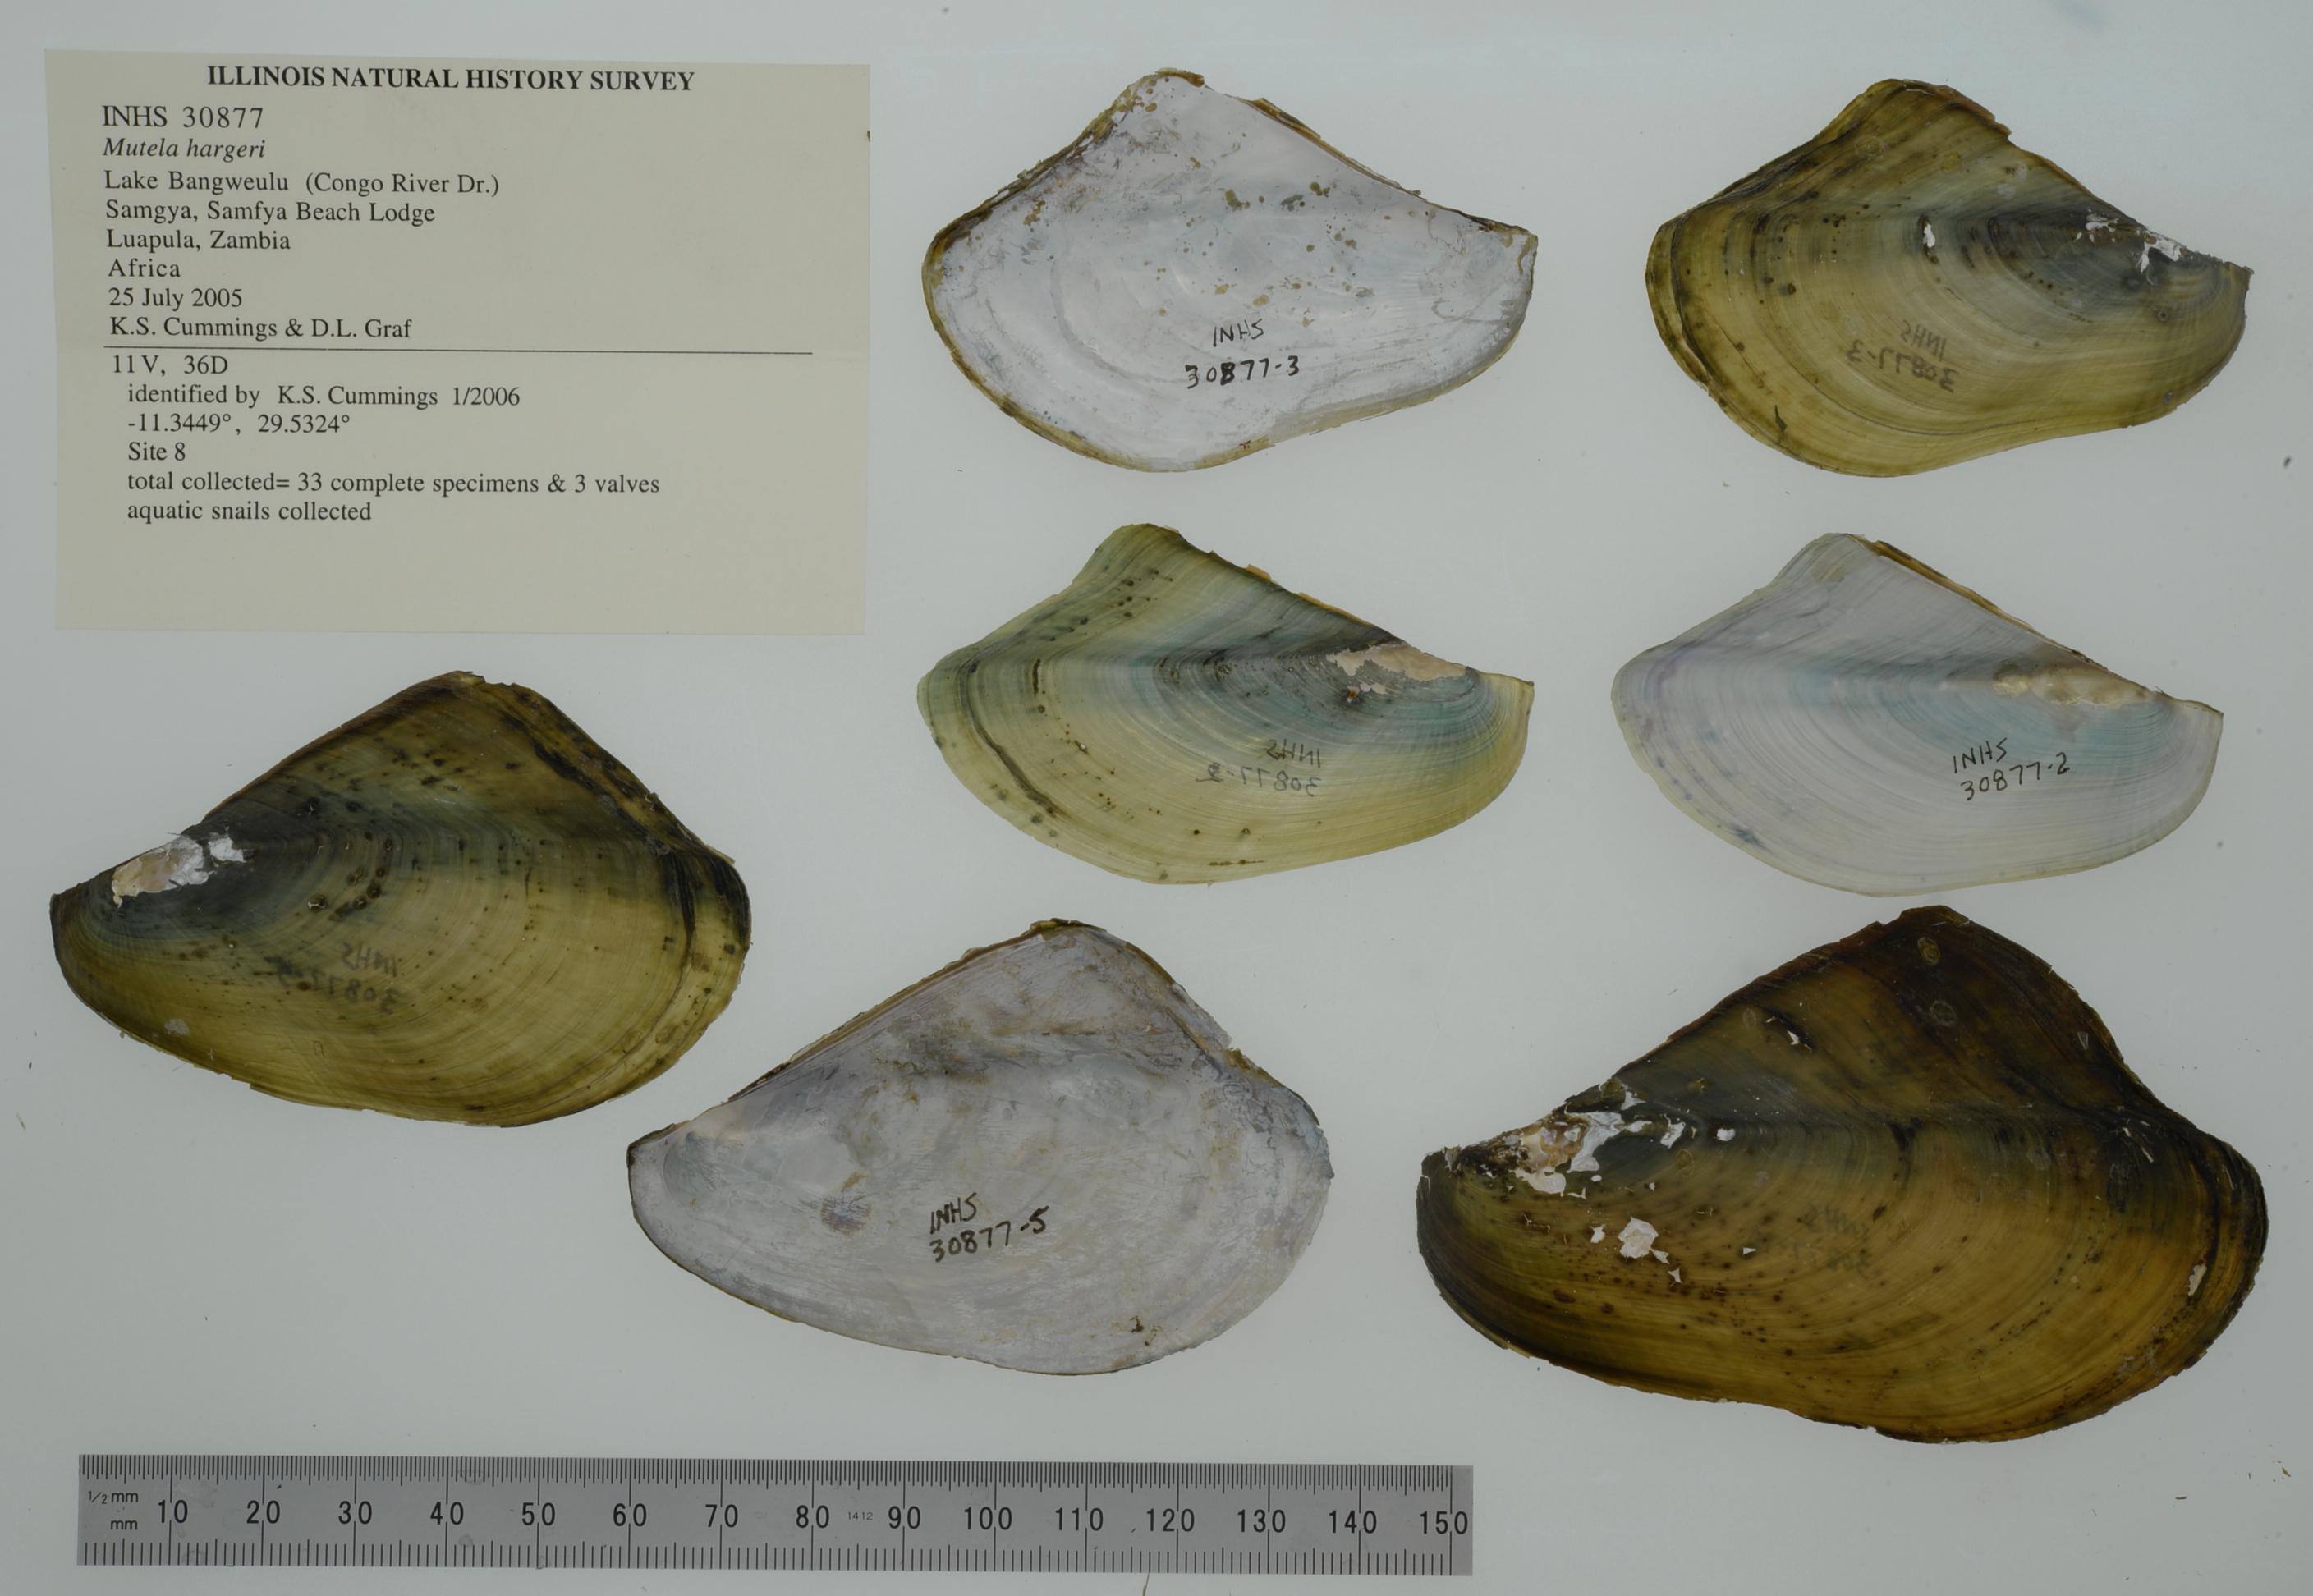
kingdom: Animalia
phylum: Mollusca
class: Bivalvia
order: Unionida
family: Iridinidae
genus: Mutela
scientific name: Mutela hargeri
